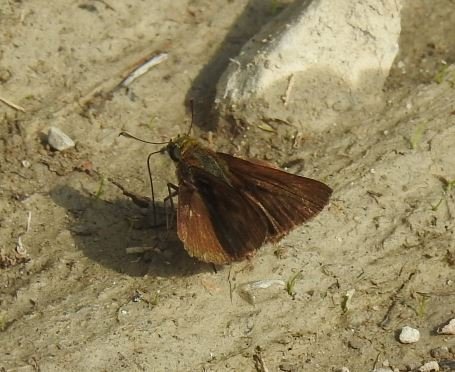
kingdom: Animalia
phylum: Arthropoda
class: Insecta
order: Lepidoptera
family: Hesperiidae
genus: Euphyes
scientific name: Euphyes vestris
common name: Dun Skipper
